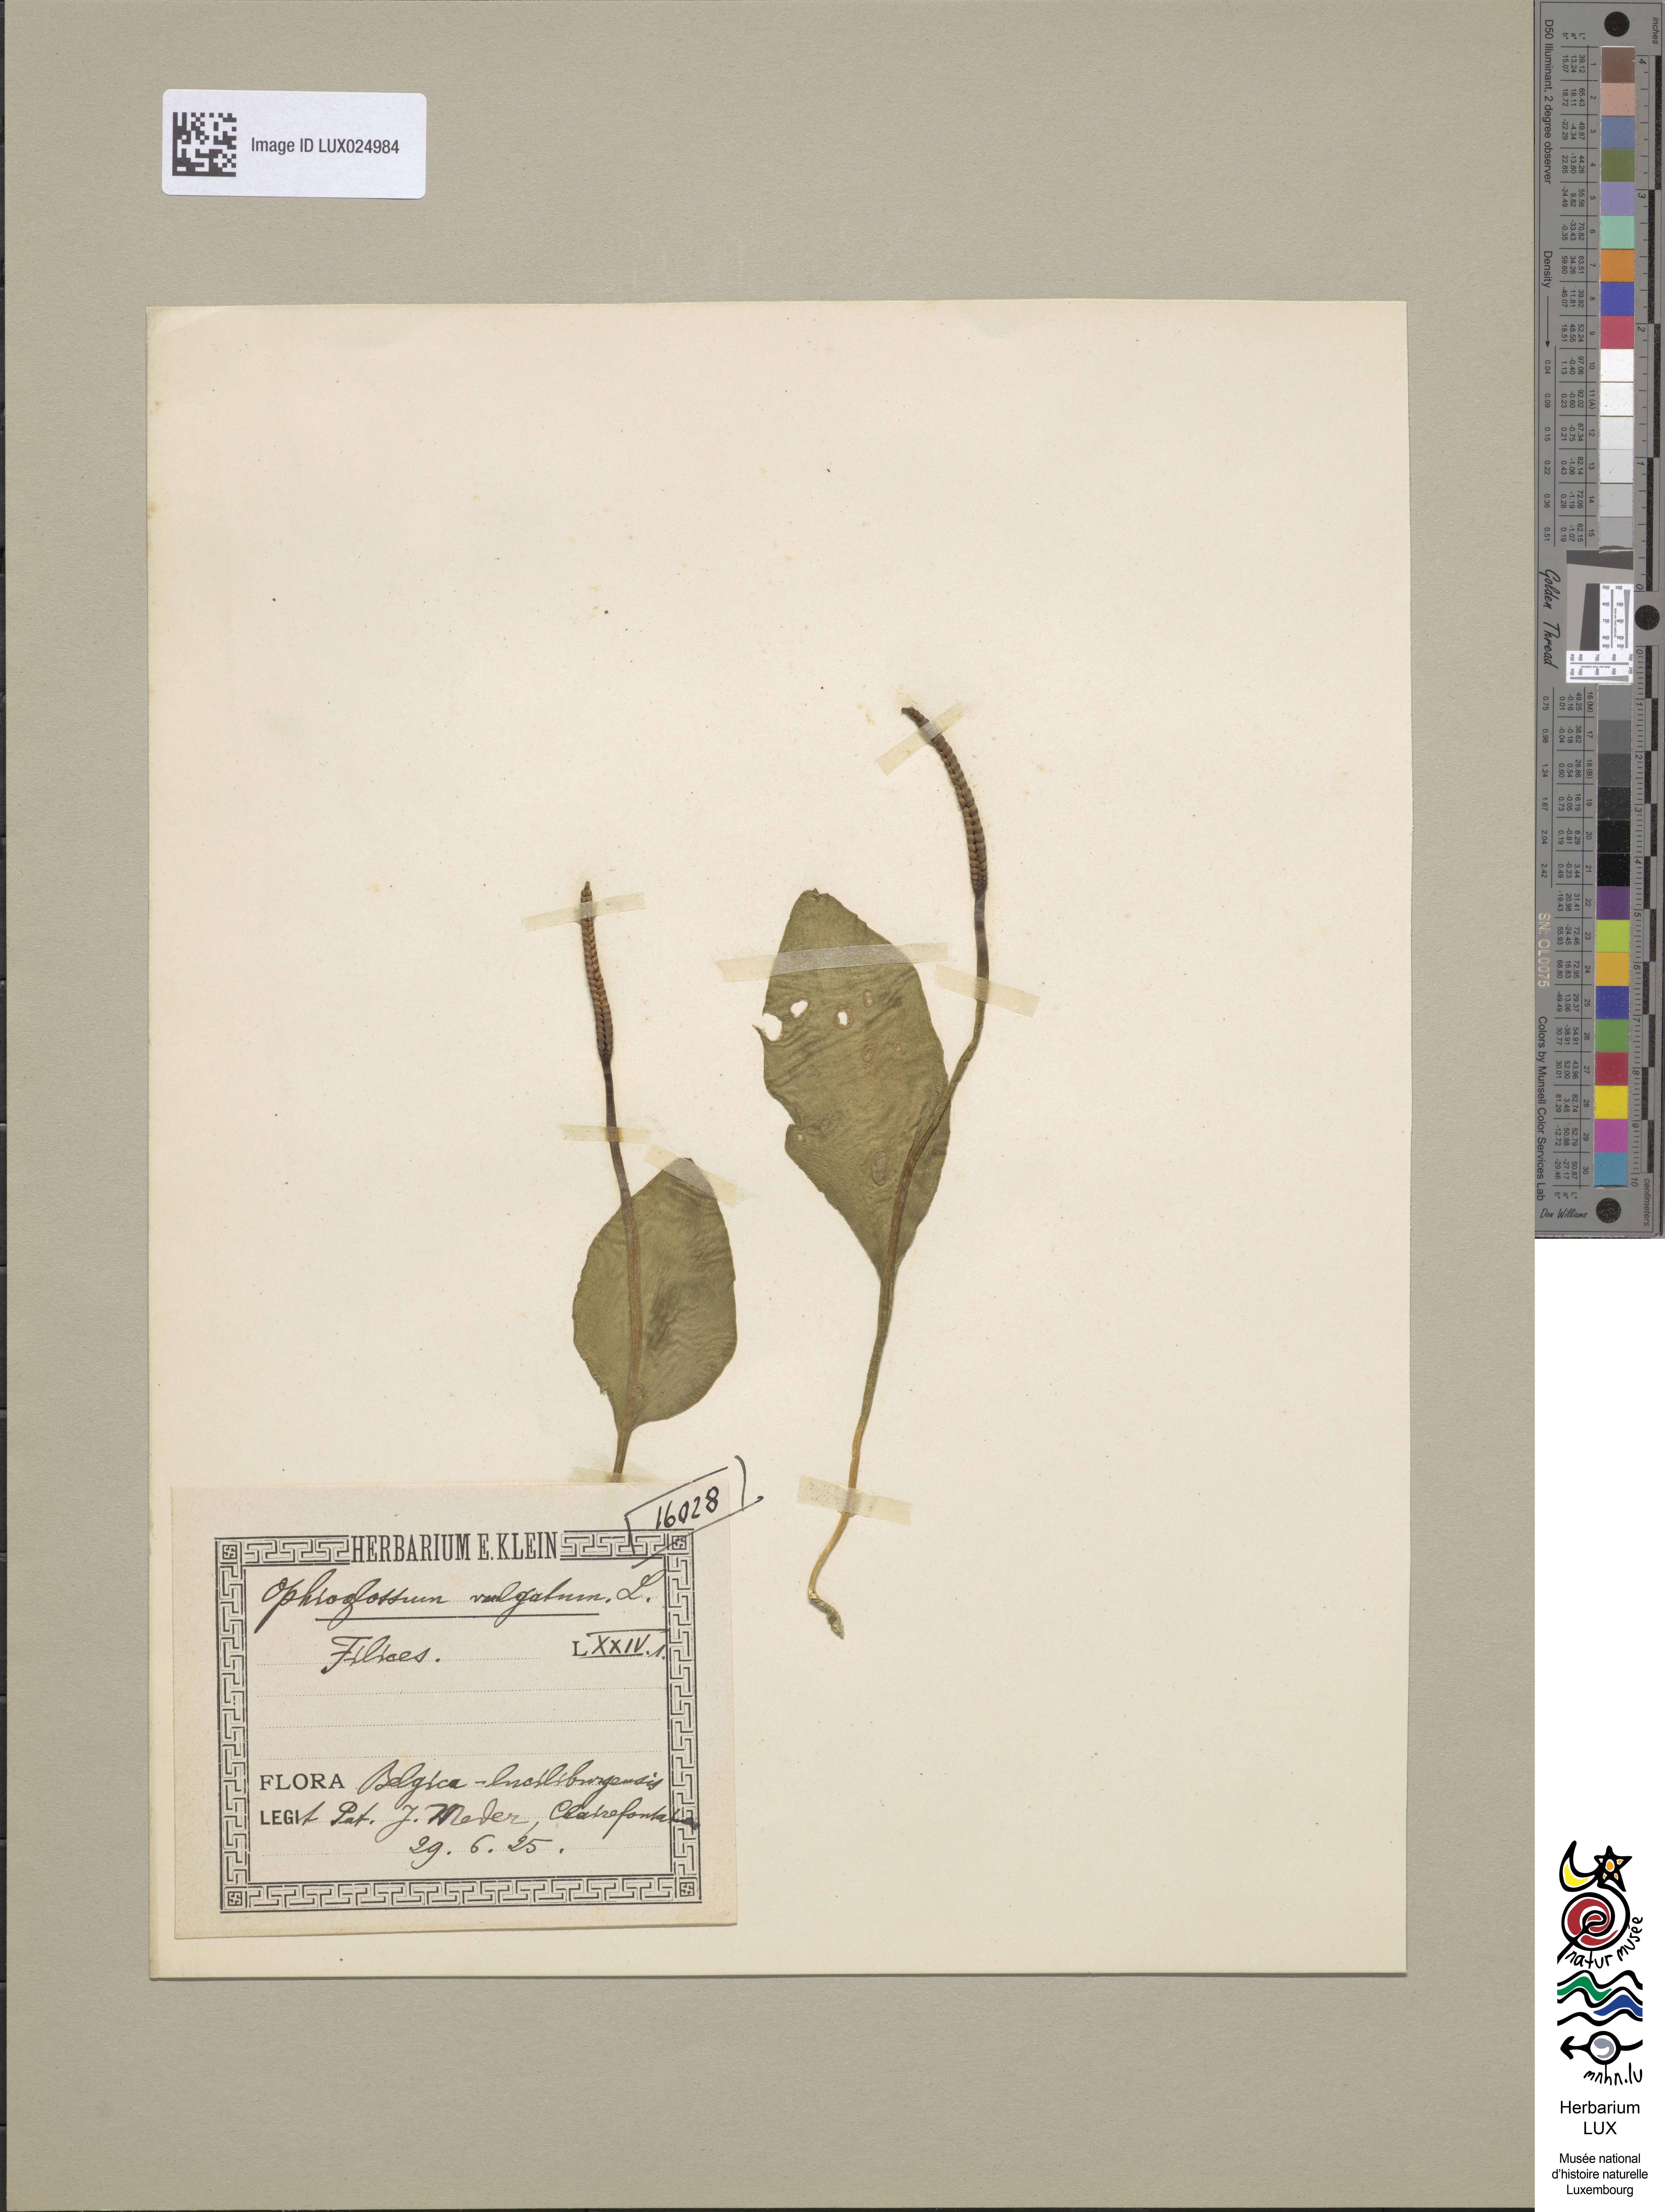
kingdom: Plantae
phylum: Tracheophyta
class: Polypodiopsida
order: Ophioglossales
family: Ophioglossaceae
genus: Ophioglossum
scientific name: Ophioglossum vulgatum
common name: Adder's-tongue
